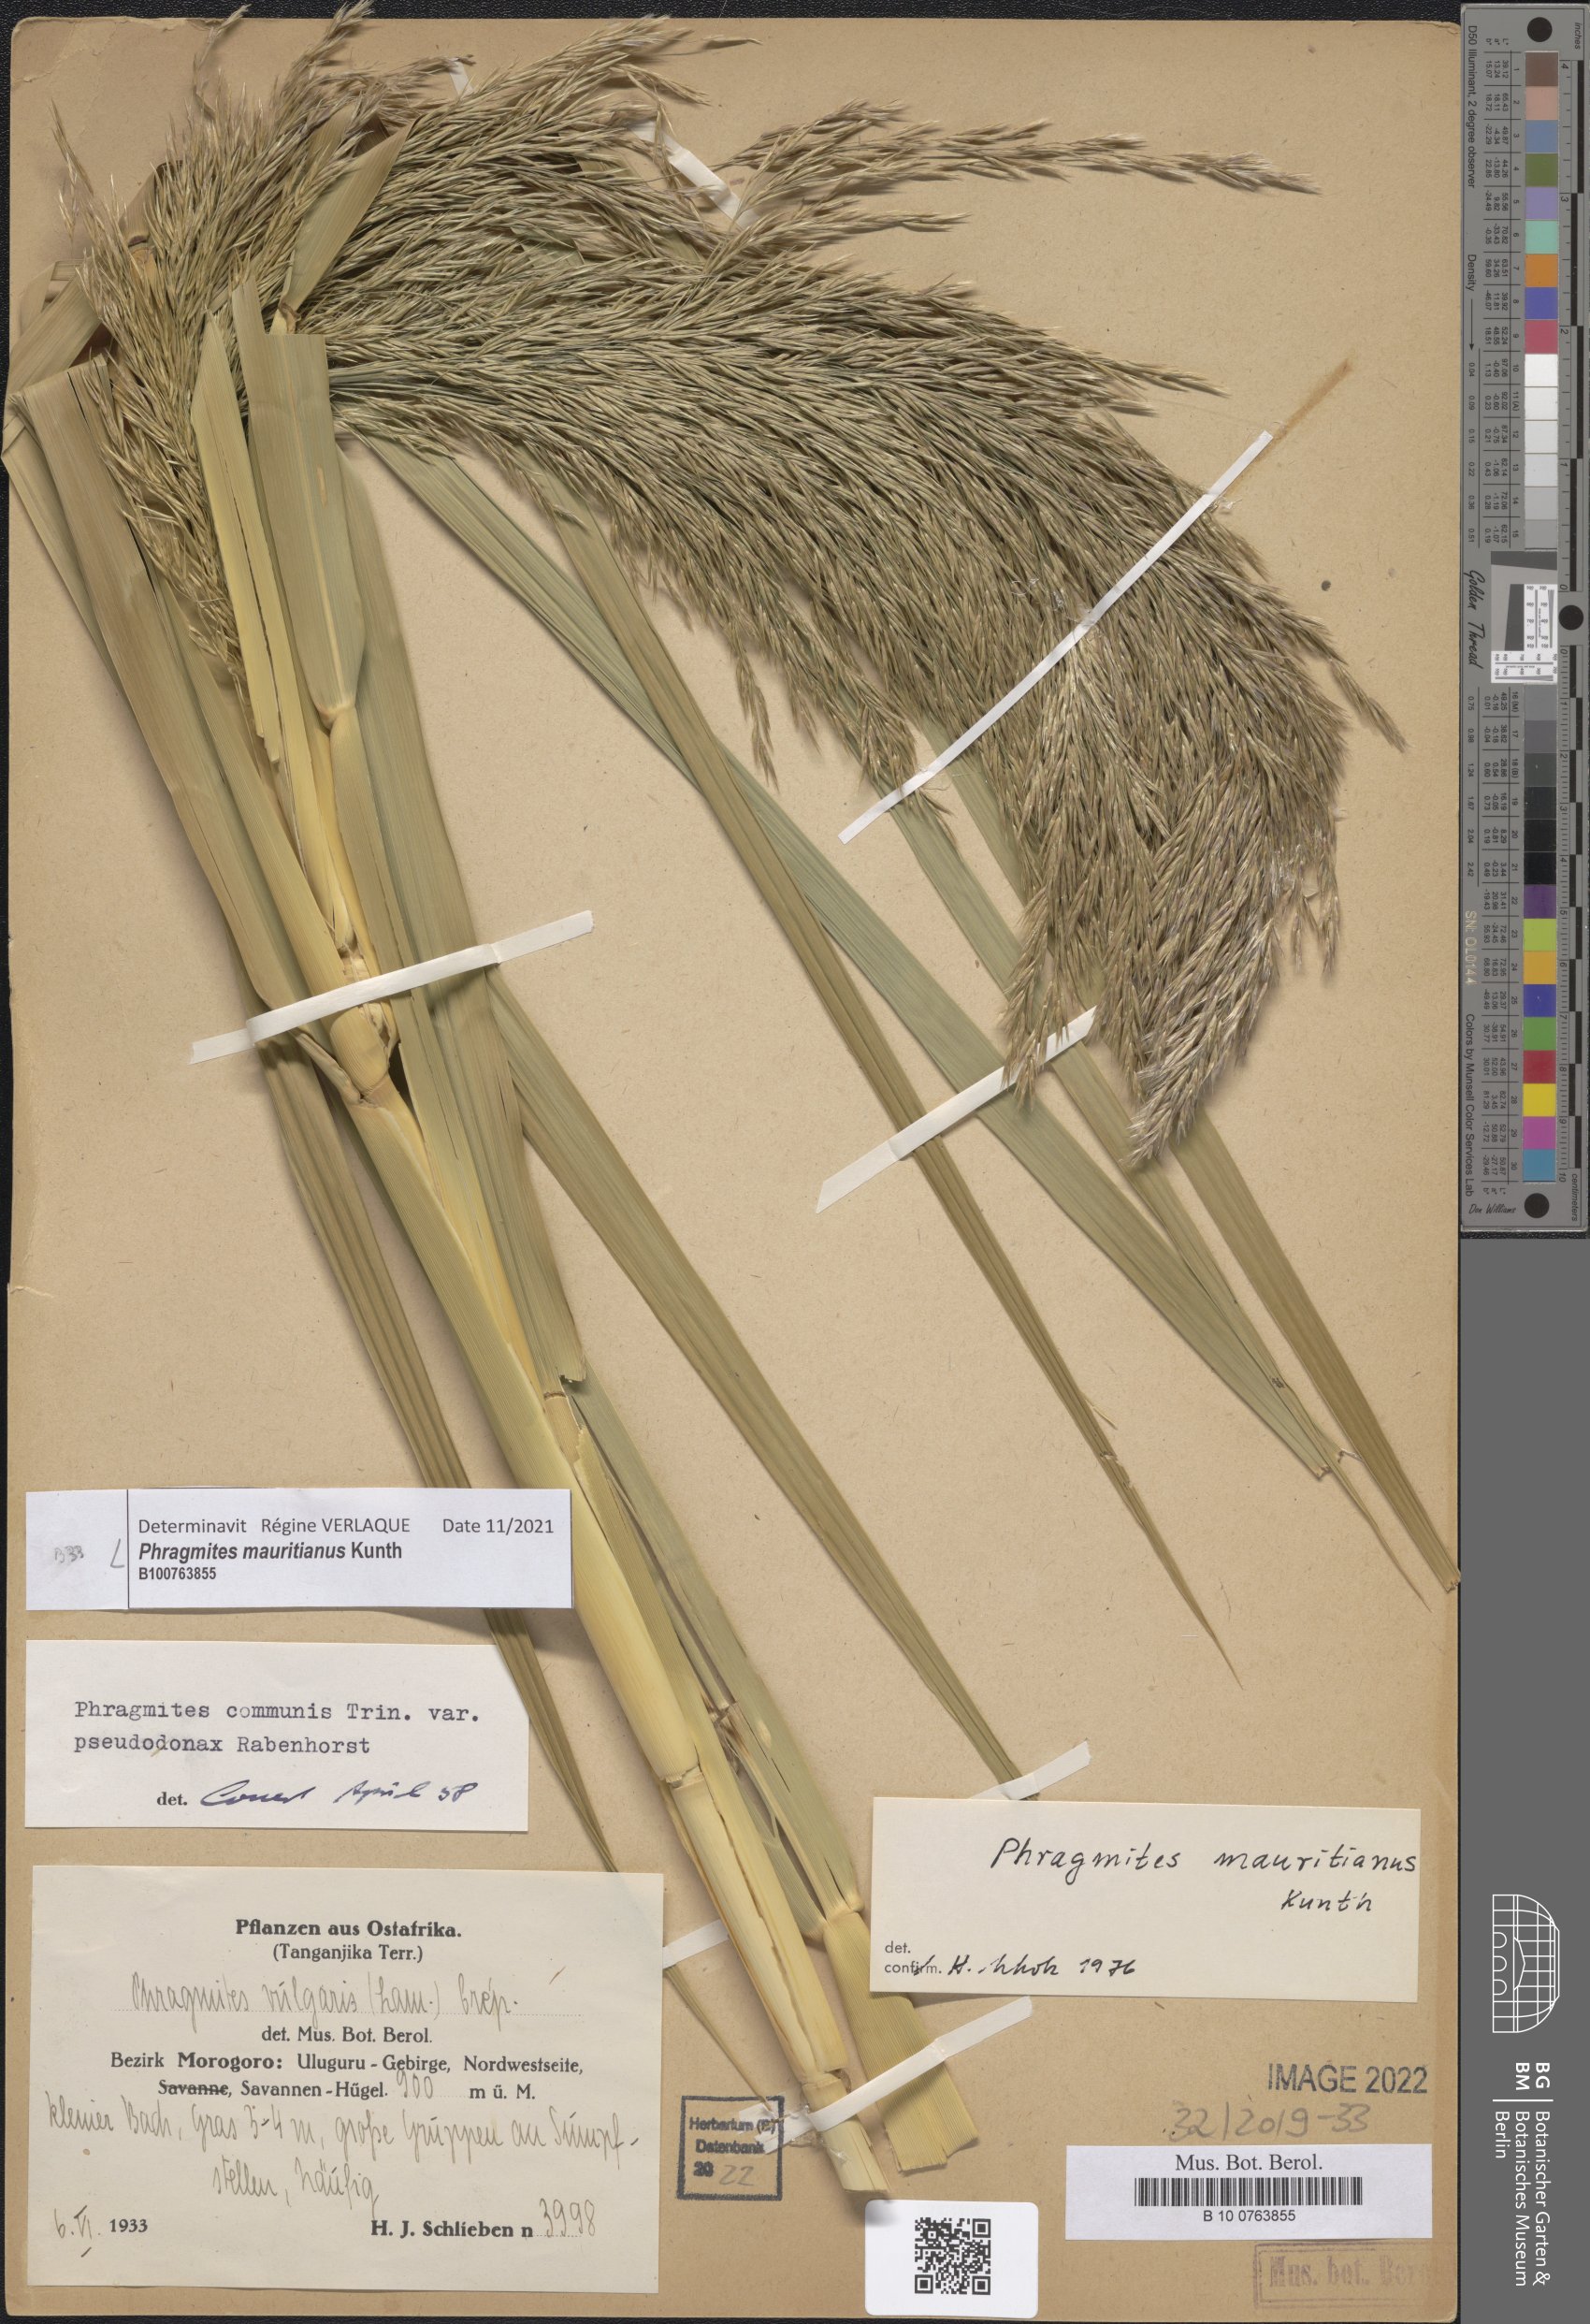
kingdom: Plantae
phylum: Tracheophyta
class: Liliopsida
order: Poales
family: Poaceae
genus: Phragmites
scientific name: Phragmites mauritianus
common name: Reed grass
